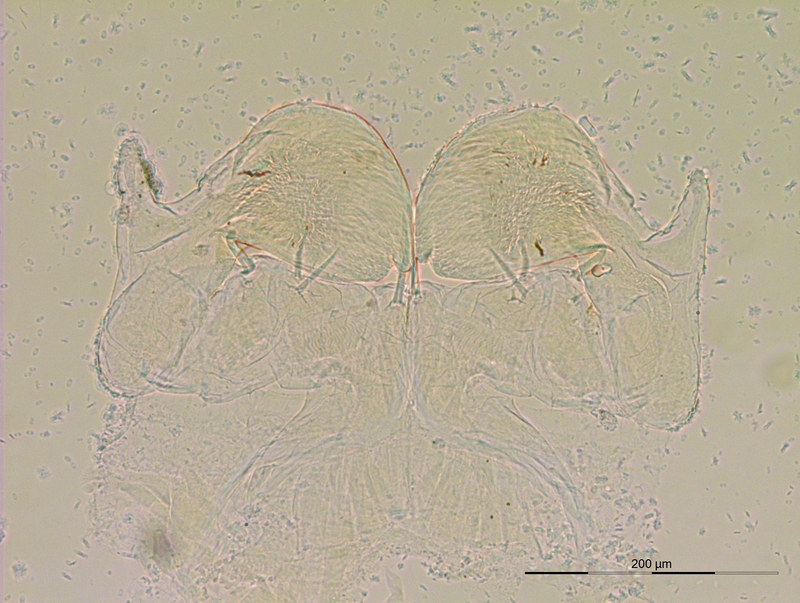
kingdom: Animalia
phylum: Arthropoda
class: Diplopoda
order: Julida
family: Rhopaloiulidae
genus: Rhopaloiulus
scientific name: Rhopaloiulus cameratanus
